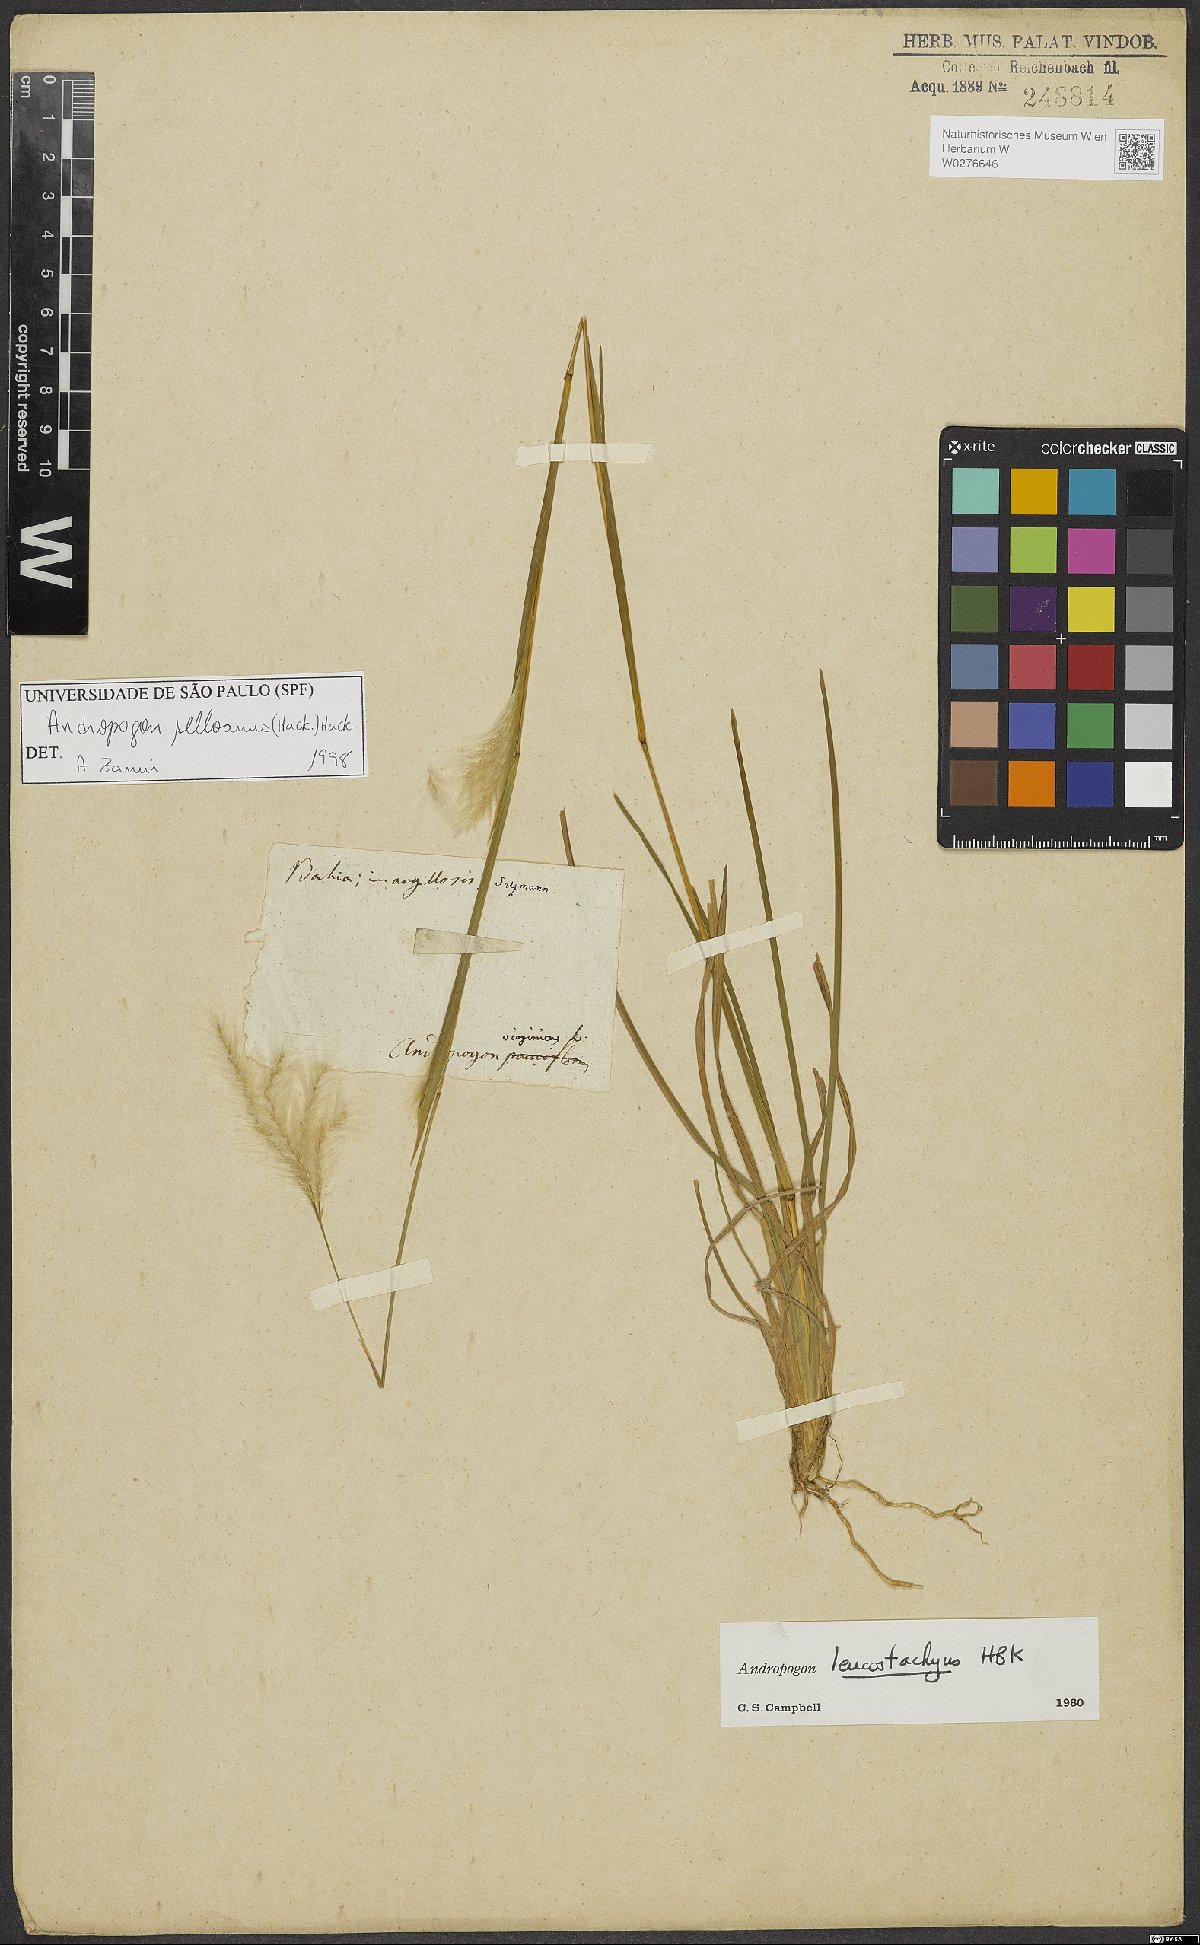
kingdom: Plantae
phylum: Tracheophyta
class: Liliopsida
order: Poales
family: Poaceae
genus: Andropogon
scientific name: Andropogon selloanus
